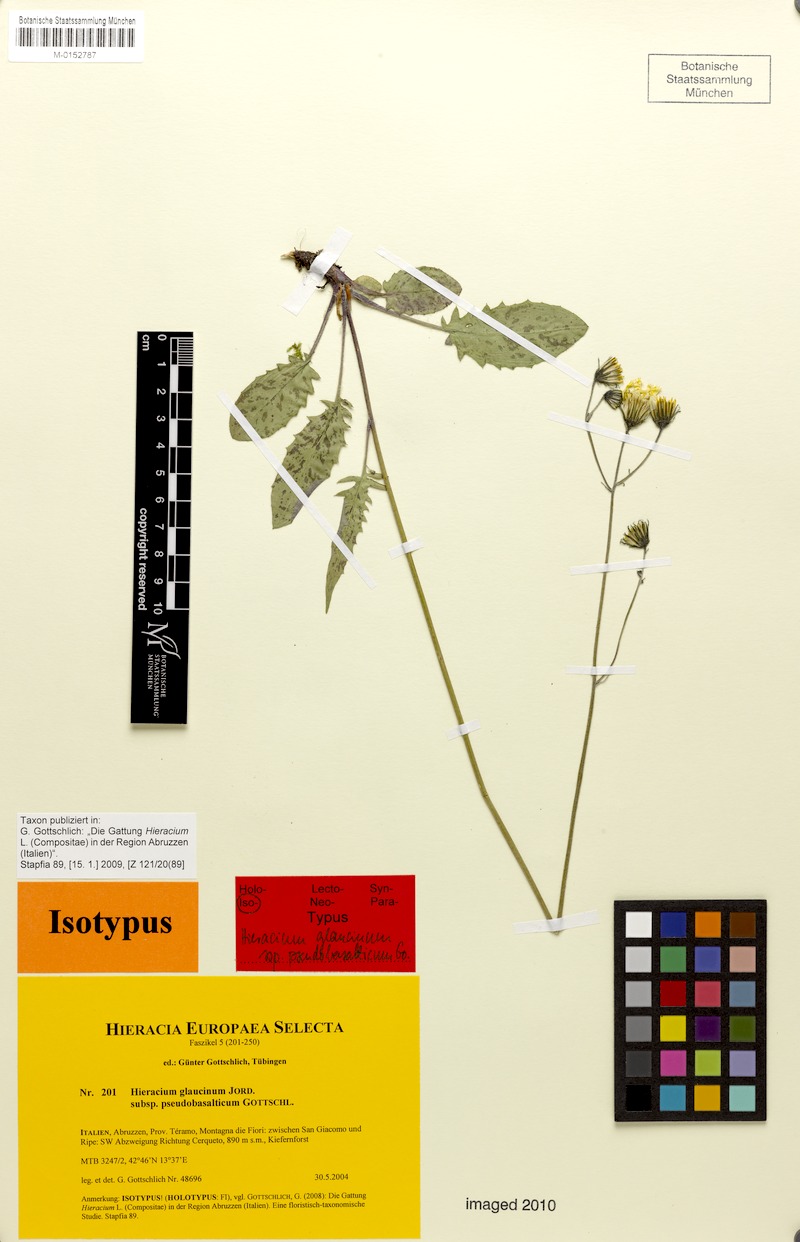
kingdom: Plantae
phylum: Tracheophyta
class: Magnoliopsida
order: Asterales
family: Asteraceae
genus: Hieracium
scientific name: Hieracium glaucinum
